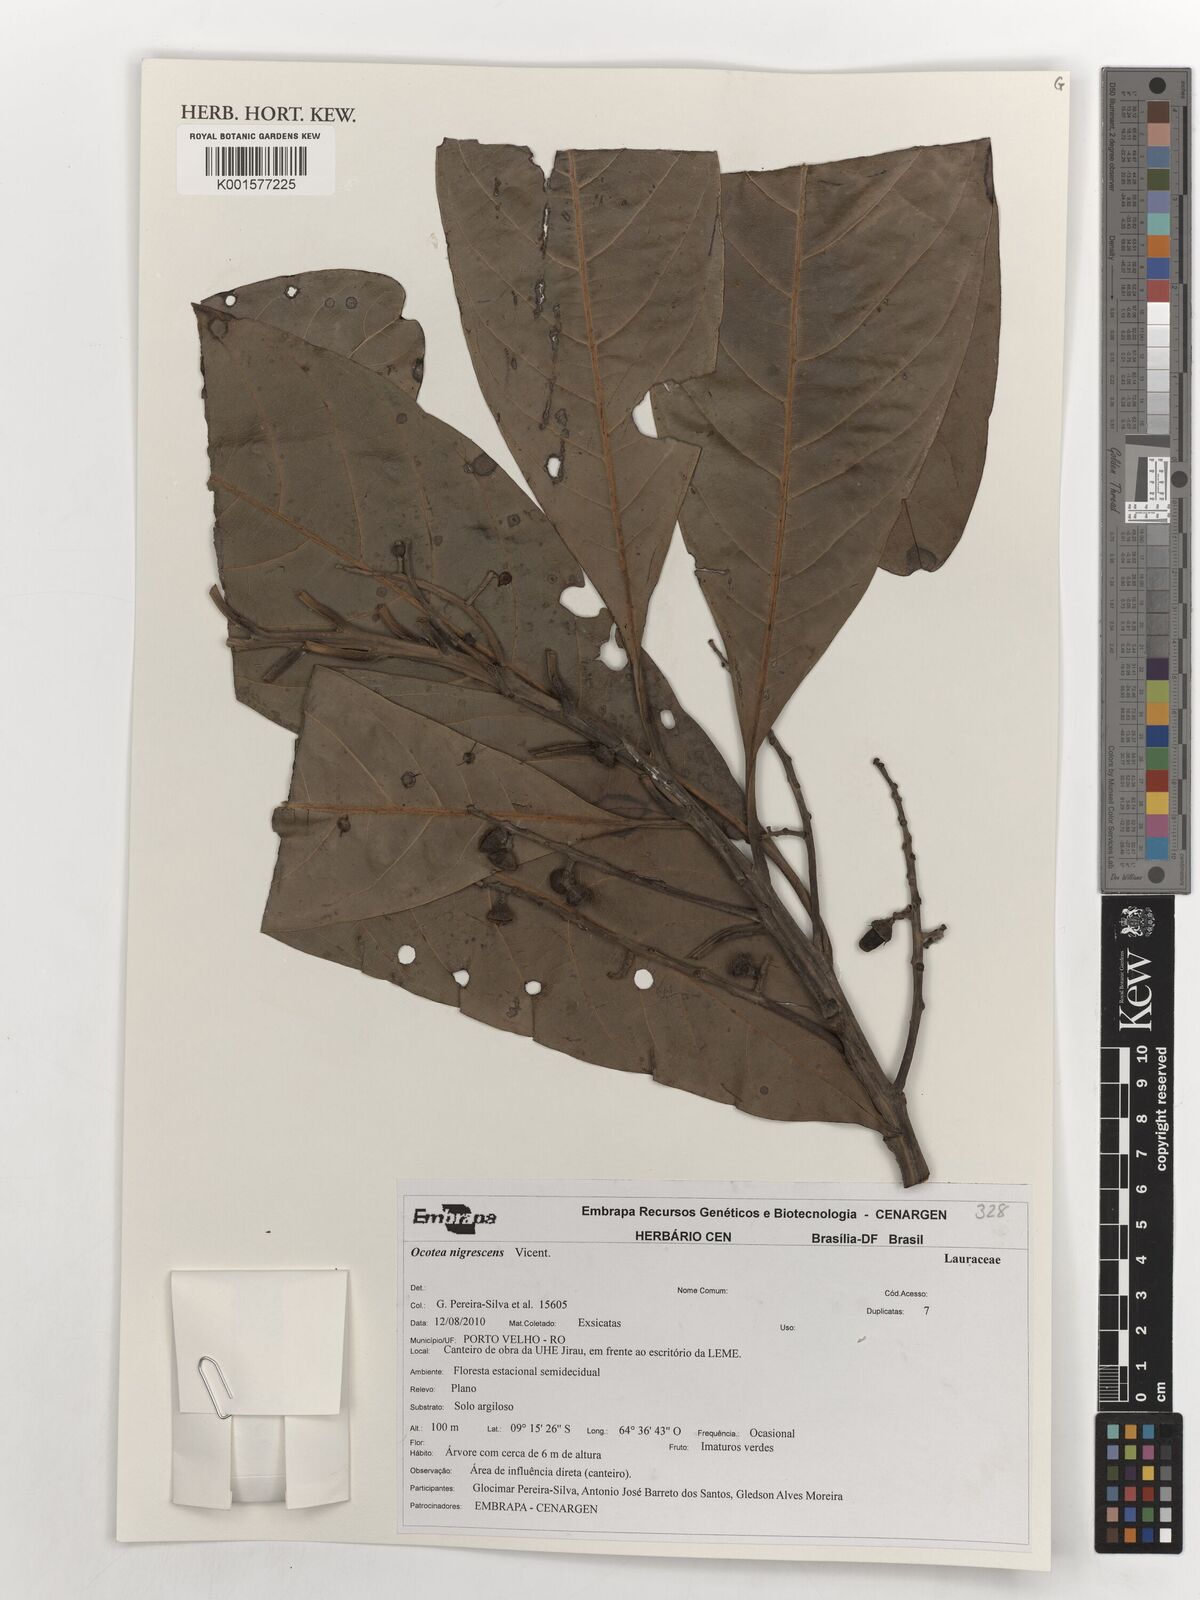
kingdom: Plantae
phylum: Tracheophyta
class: Magnoliopsida
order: Laurales
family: Lauraceae
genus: Ocotea
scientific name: Ocotea nigrescens
